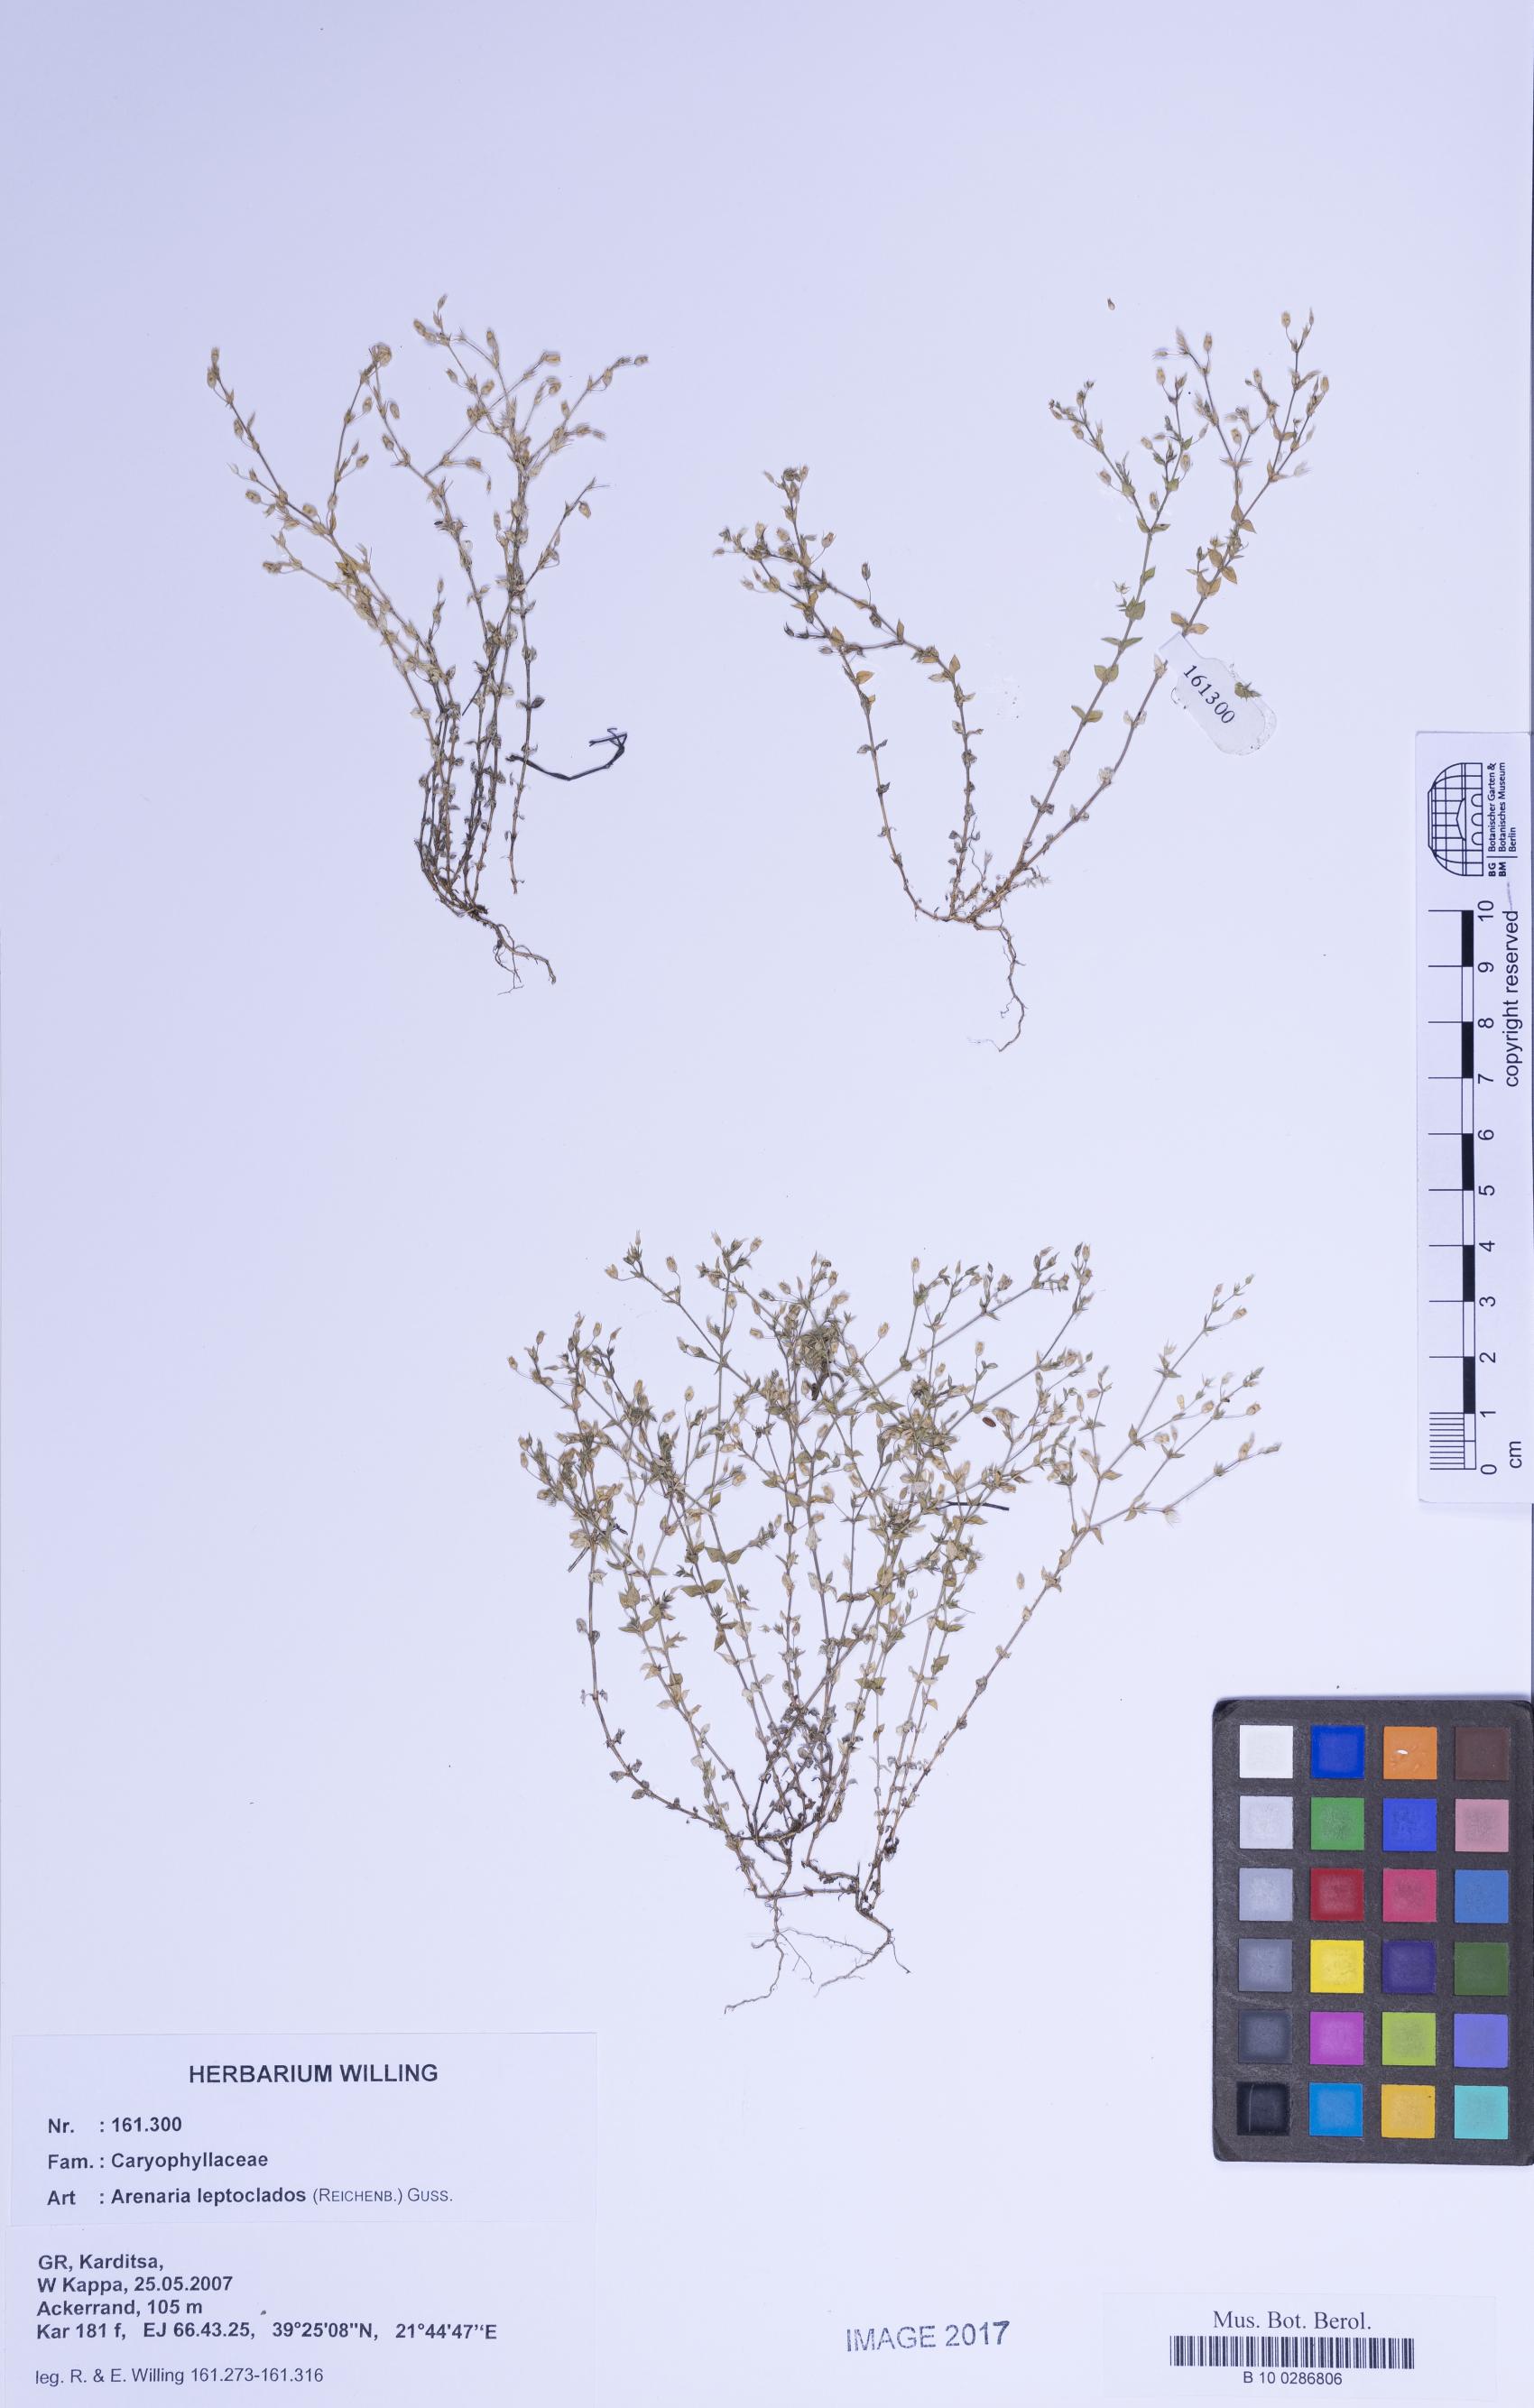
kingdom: Plantae
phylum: Tracheophyta
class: Magnoliopsida
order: Caryophyllales
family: Caryophyllaceae
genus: Arenaria
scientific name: Arenaria leptoclados
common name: Thyme-leaved sandwort
